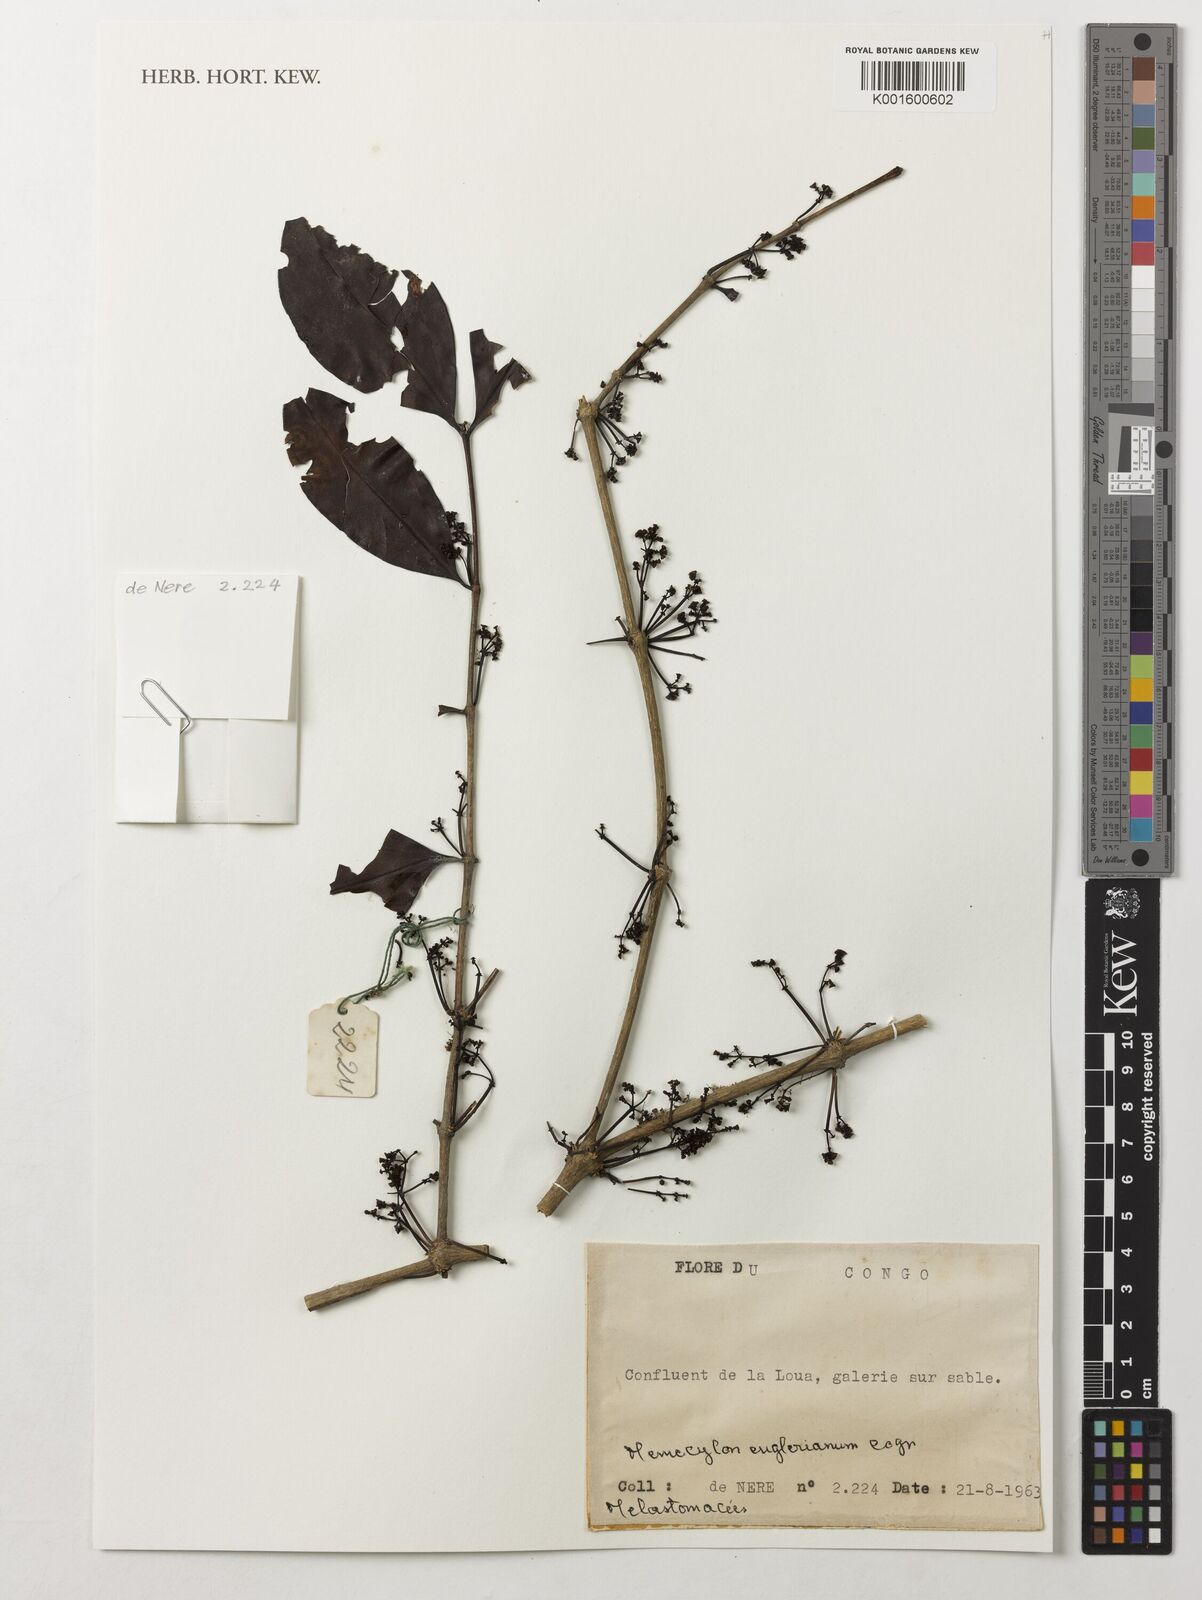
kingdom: Plantae
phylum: Tracheophyta
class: Magnoliopsida
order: Myrtales
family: Melastomataceae
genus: Memecylon
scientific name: Memecylon englerianum
